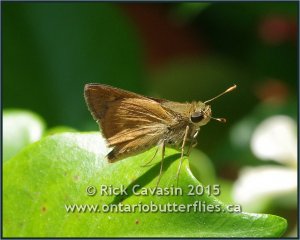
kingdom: Animalia
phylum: Arthropoda
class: Insecta
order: Lepidoptera
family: Hesperiidae
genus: Wallengrenia
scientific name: Wallengrenia otho
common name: Southern Broken-Dash
